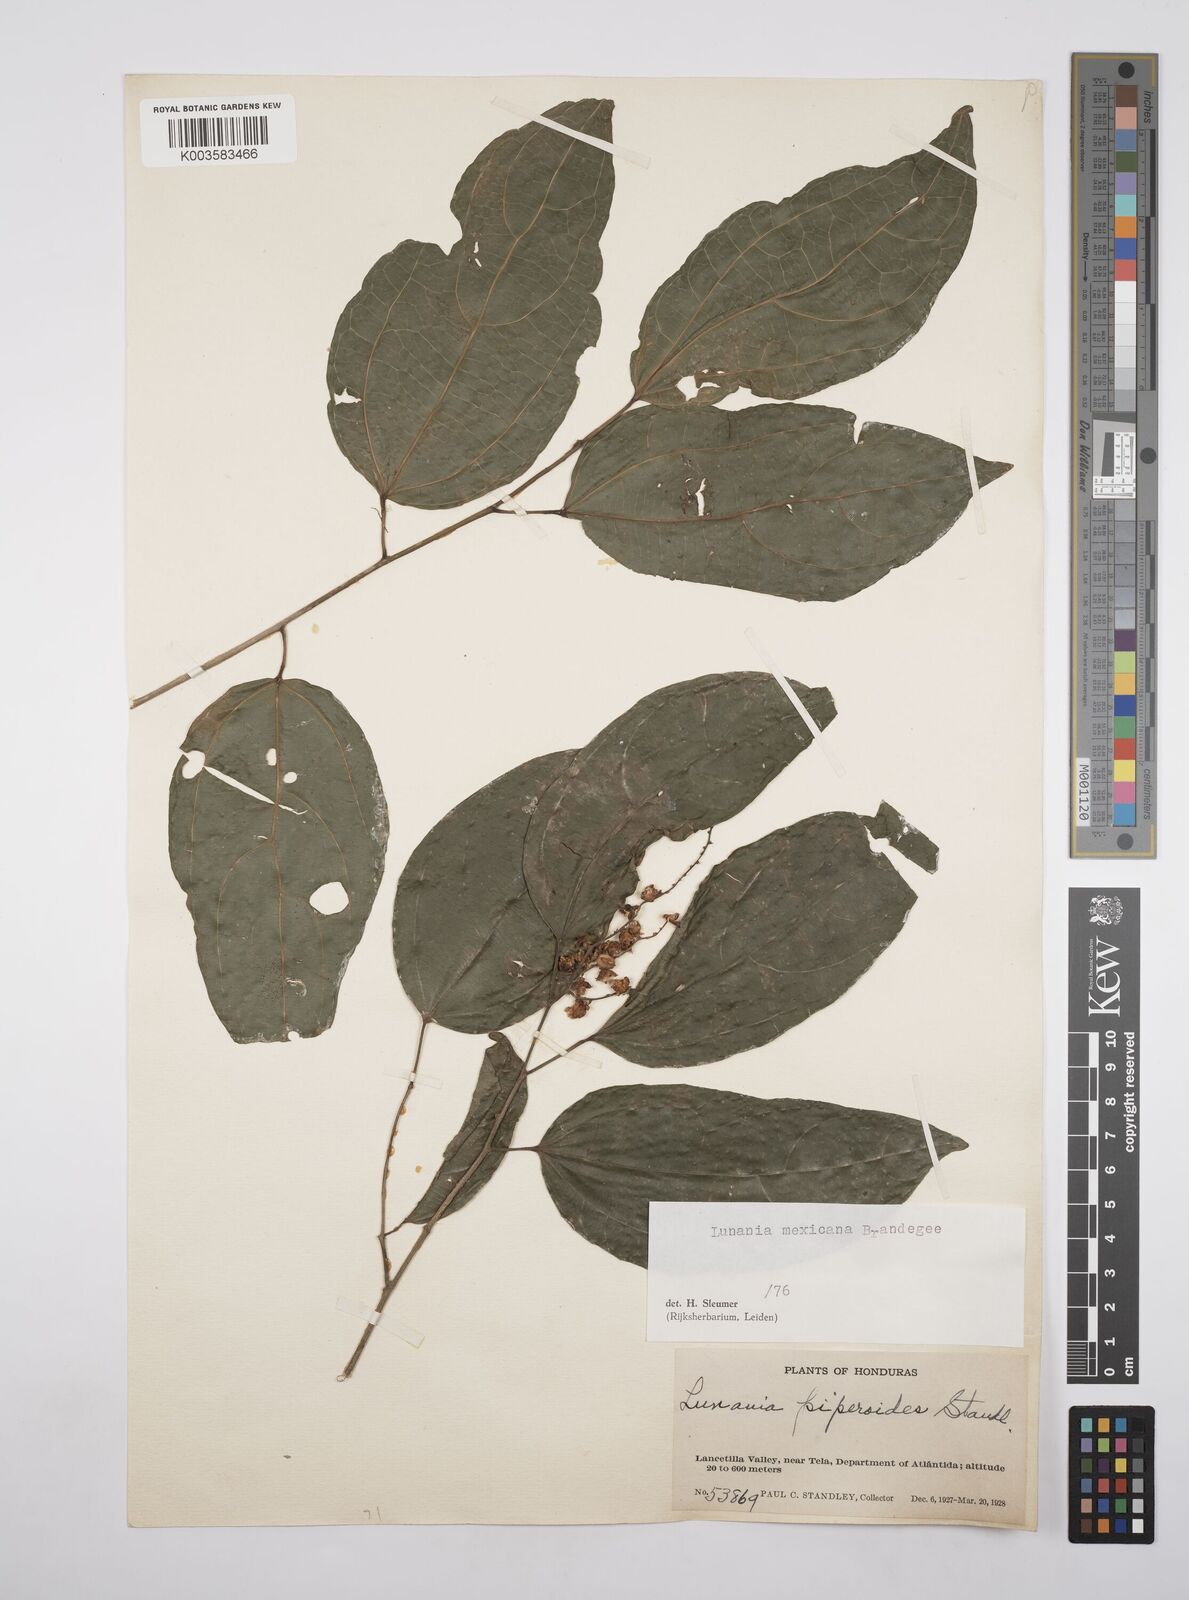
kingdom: Plantae
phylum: Tracheophyta
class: Magnoliopsida
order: Malpighiales
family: Salicaceae
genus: Lunania
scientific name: Lunania mexicana
